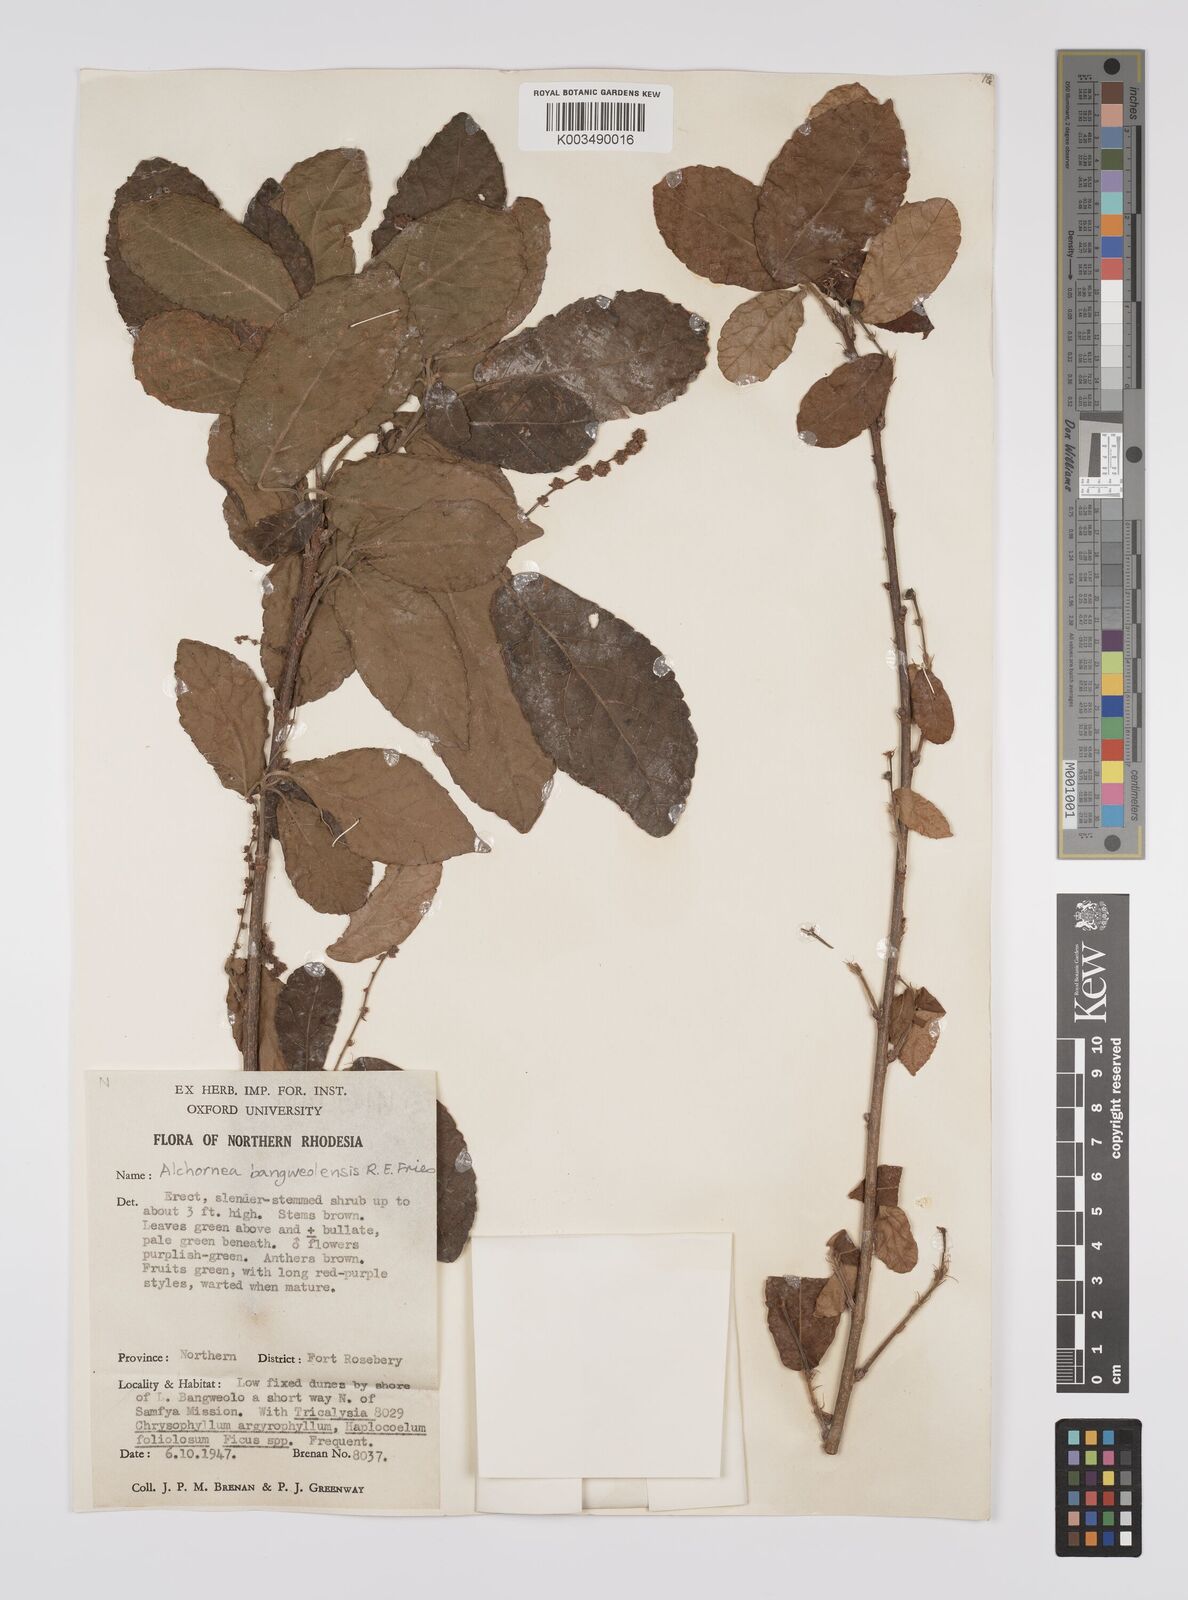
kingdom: Plantae
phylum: Tracheophyta
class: Magnoliopsida
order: Malpighiales
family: Euphorbiaceae
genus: Alchornea
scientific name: Alchornea yambuyaensis
